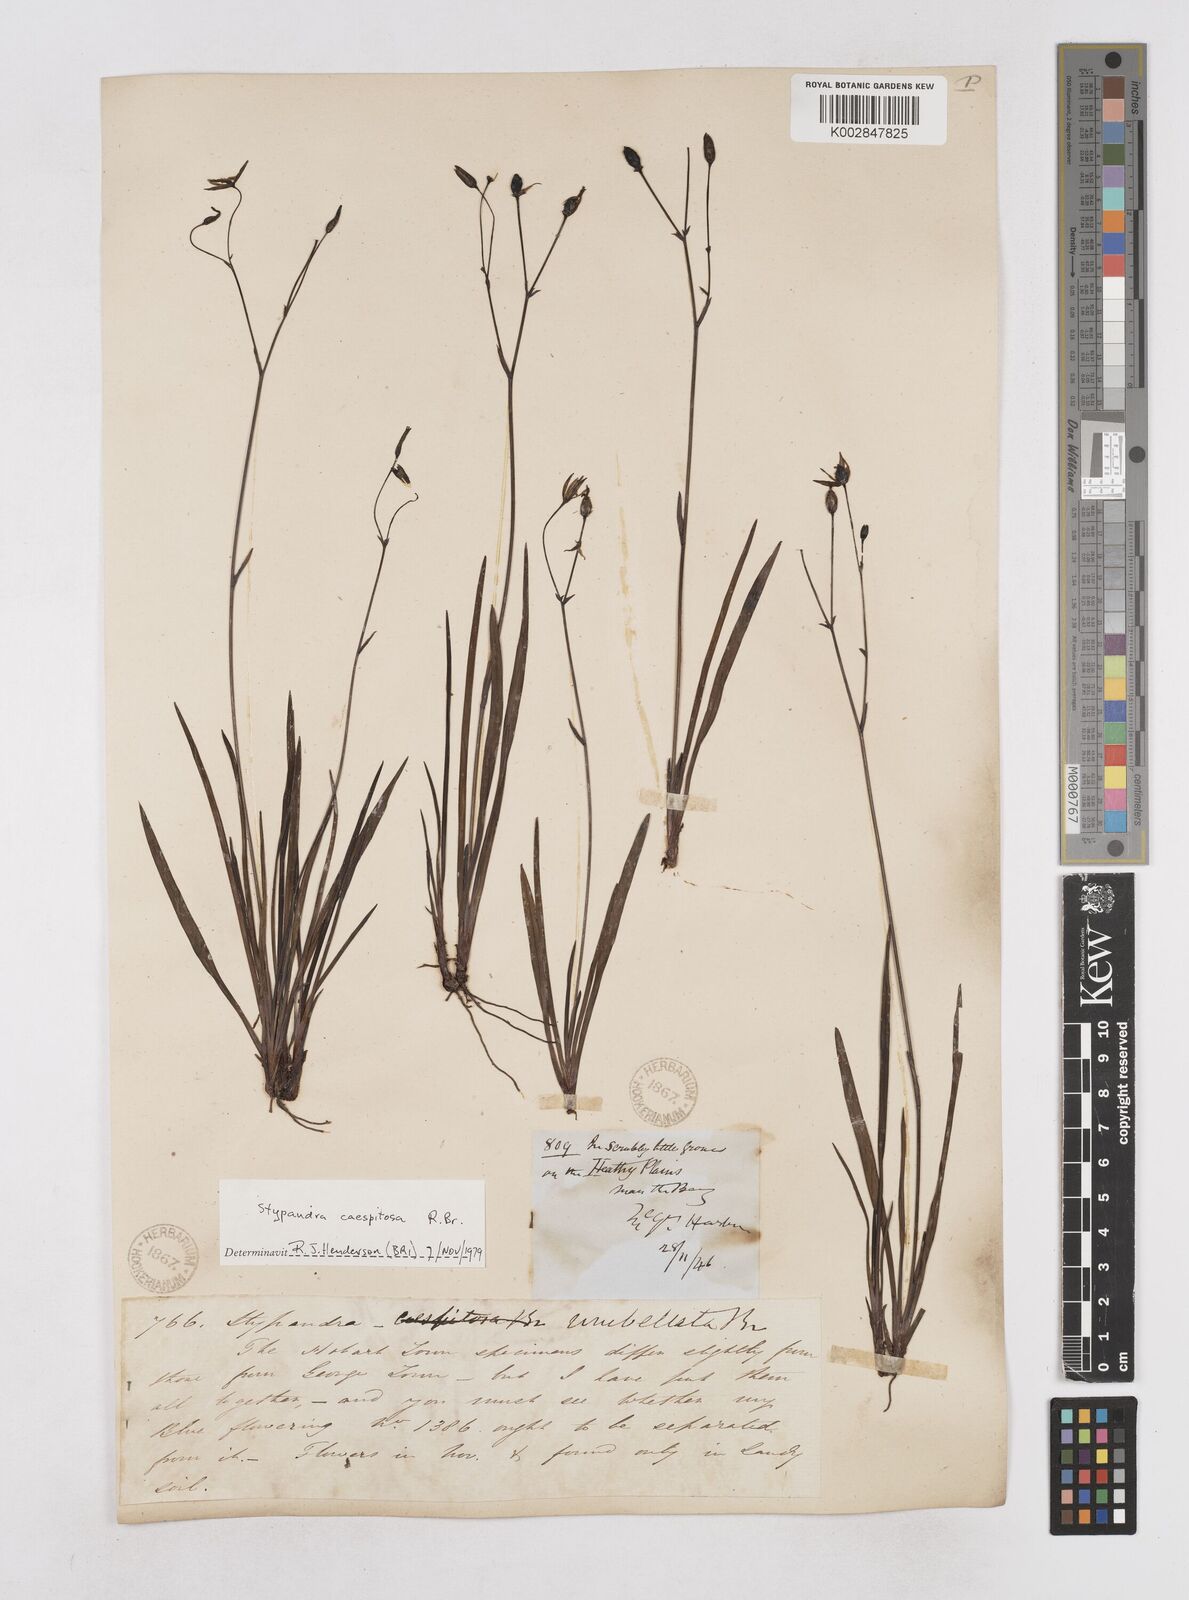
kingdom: Plantae
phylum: Tracheophyta
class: Liliopsida
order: Asparagales
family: Asphodelaceae
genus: Thelionema
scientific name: Thelionema umbellatum
